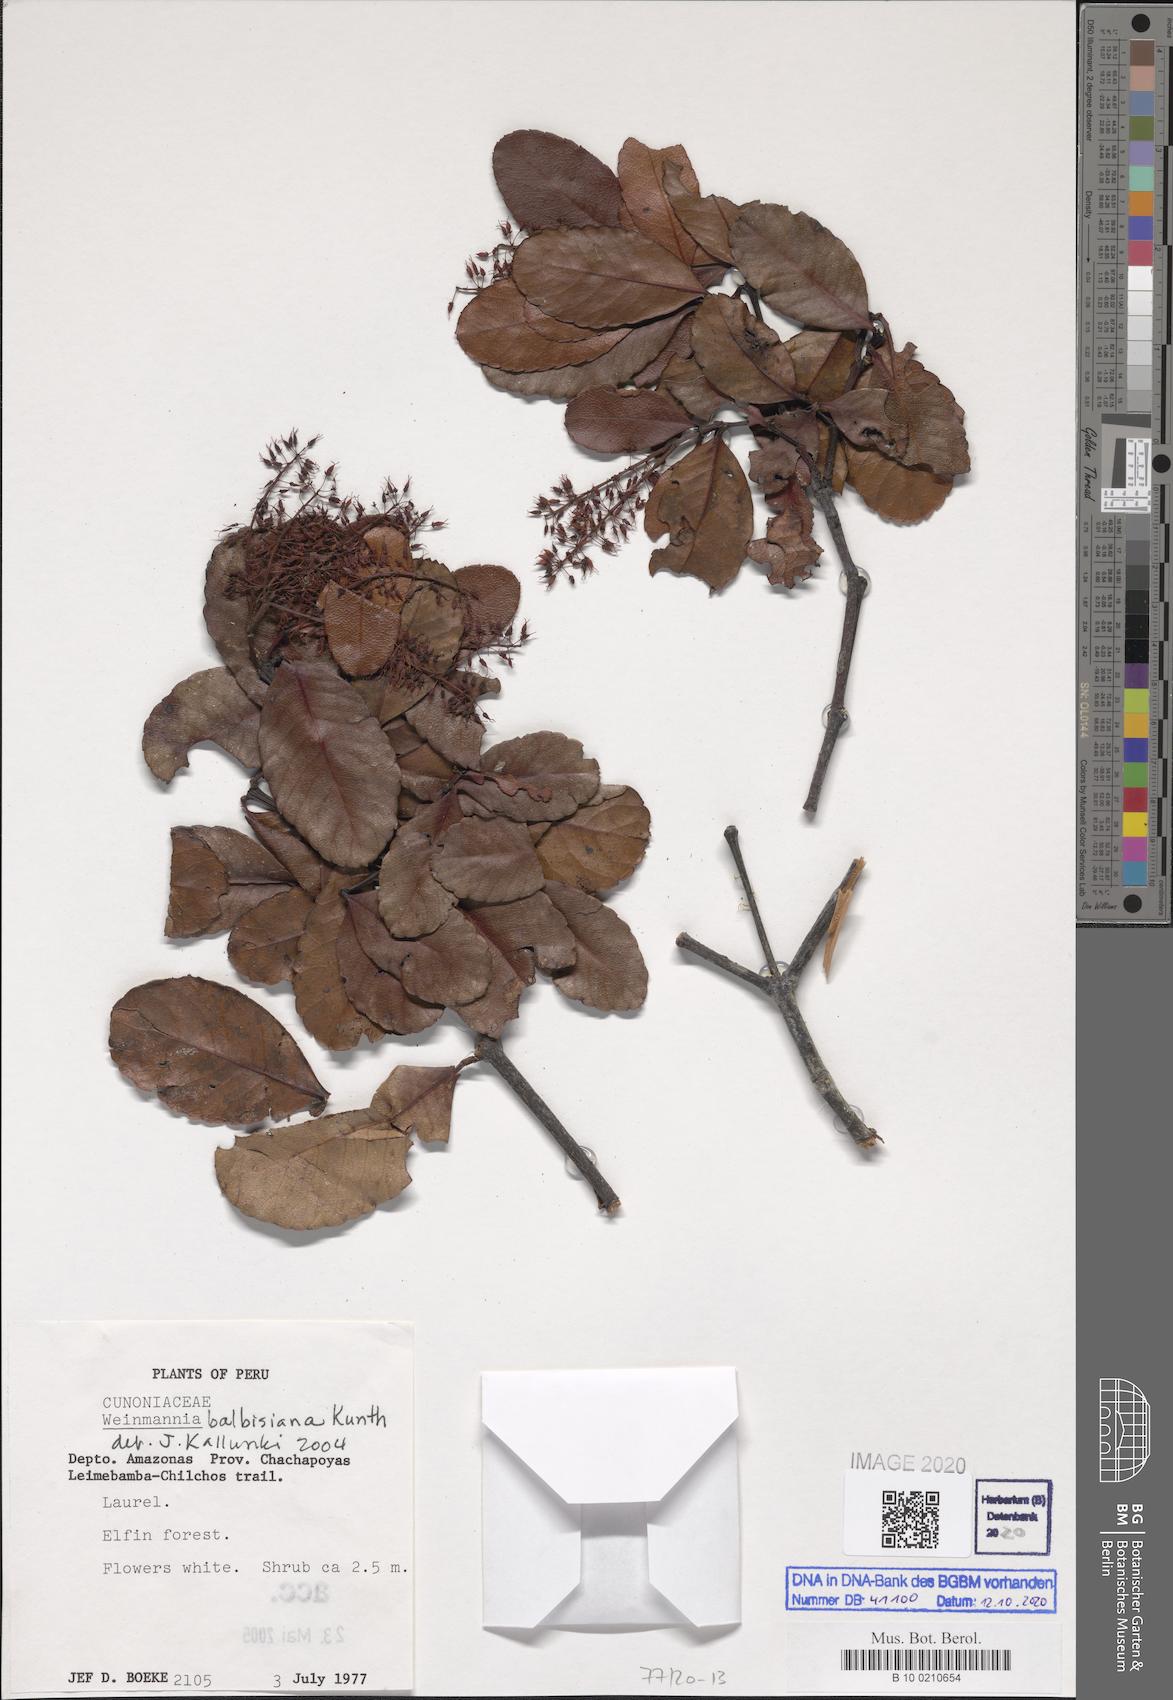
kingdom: Plantae
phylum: Tracheophyta
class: Magnoliopsida
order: Oxalidales
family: Cunoniaceae
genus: Weinmannia
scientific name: Weinmannia ovata
